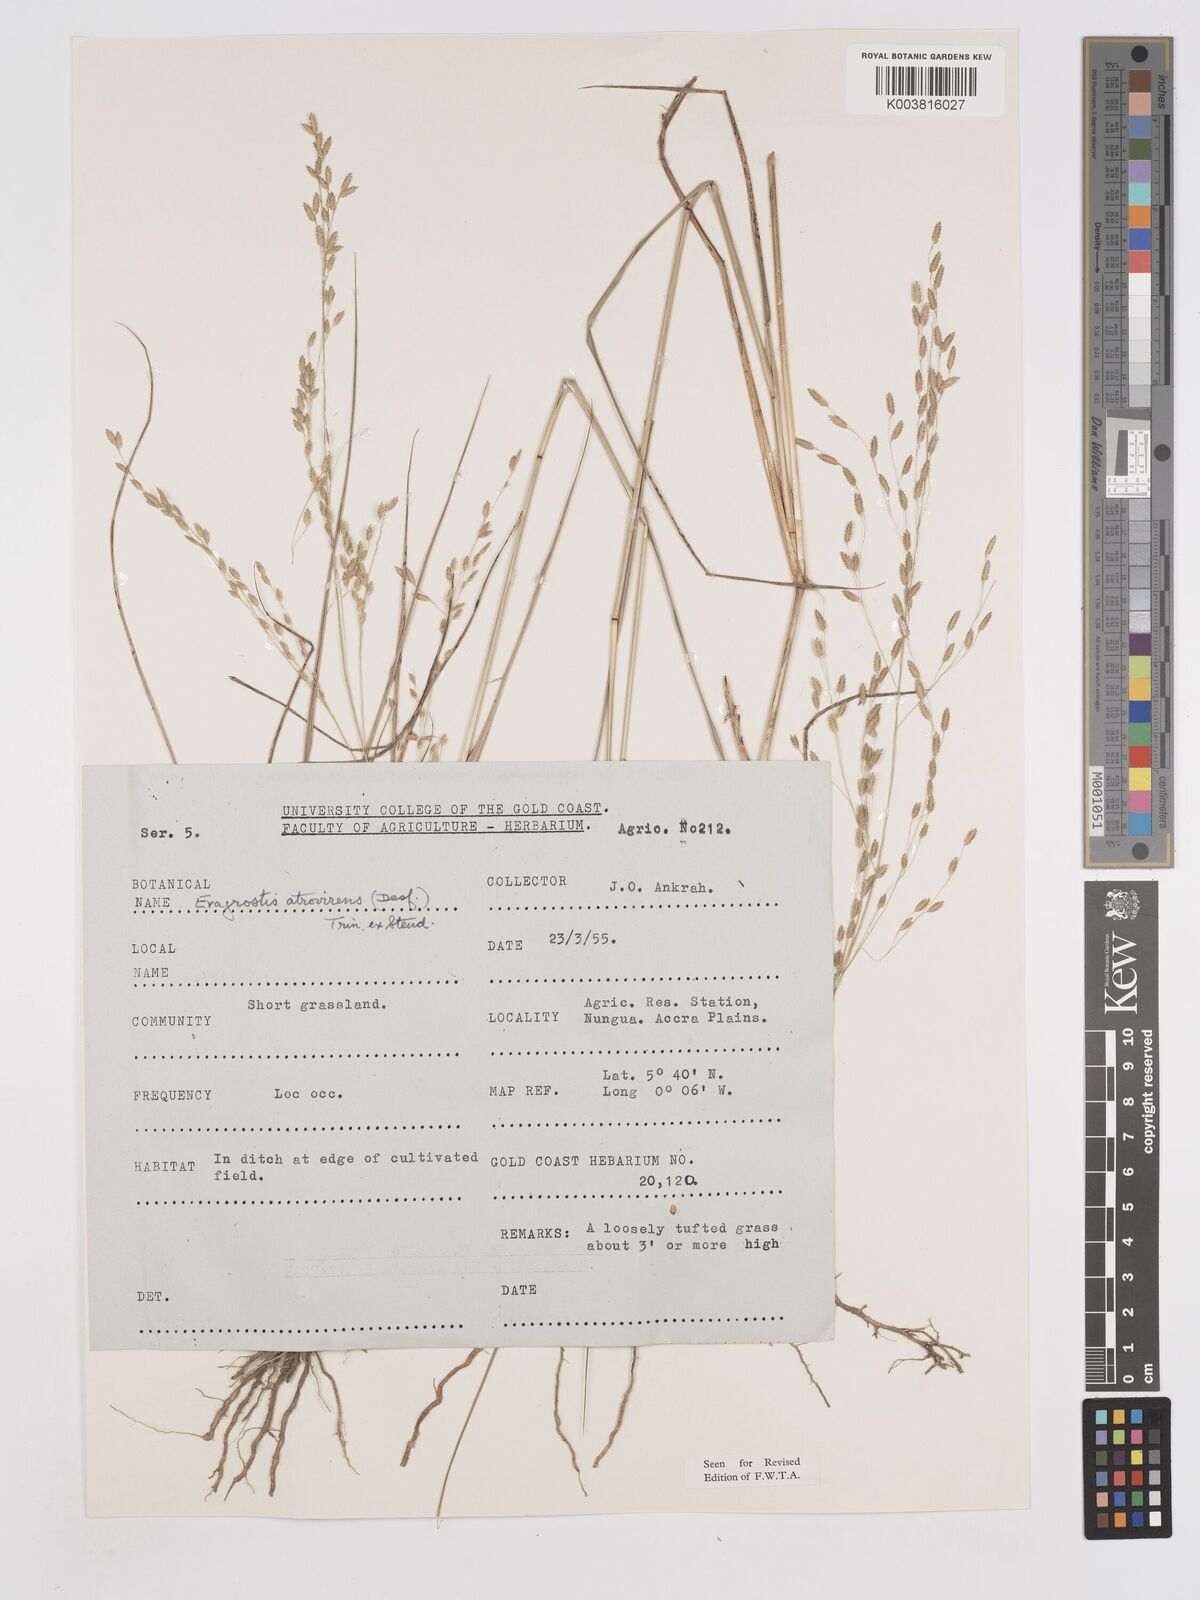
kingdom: Plantae
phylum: Tracheophyta
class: Liliopsida
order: Poales
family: Poaceae
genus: Eragrostis
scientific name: Eragrostis atrovirens
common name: Thalia lovegrass
